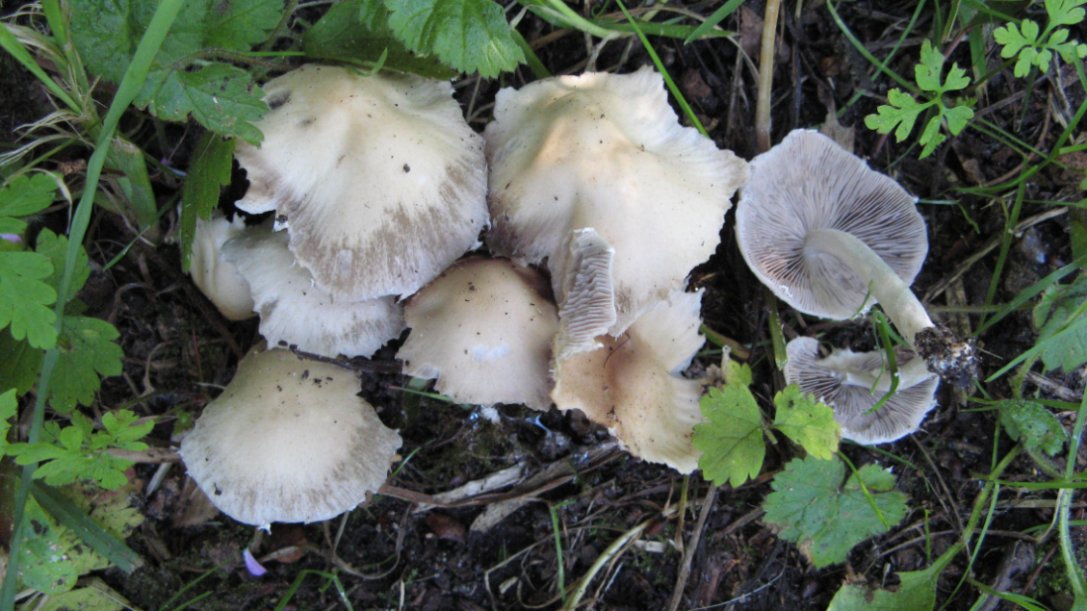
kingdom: Fungi
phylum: Basidiomycota
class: Agaricomycetes
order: Agaricales
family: Psathyrellaceae
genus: Candolleomyces
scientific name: Candolleomyces candolleanus
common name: Candolles mørkhat
